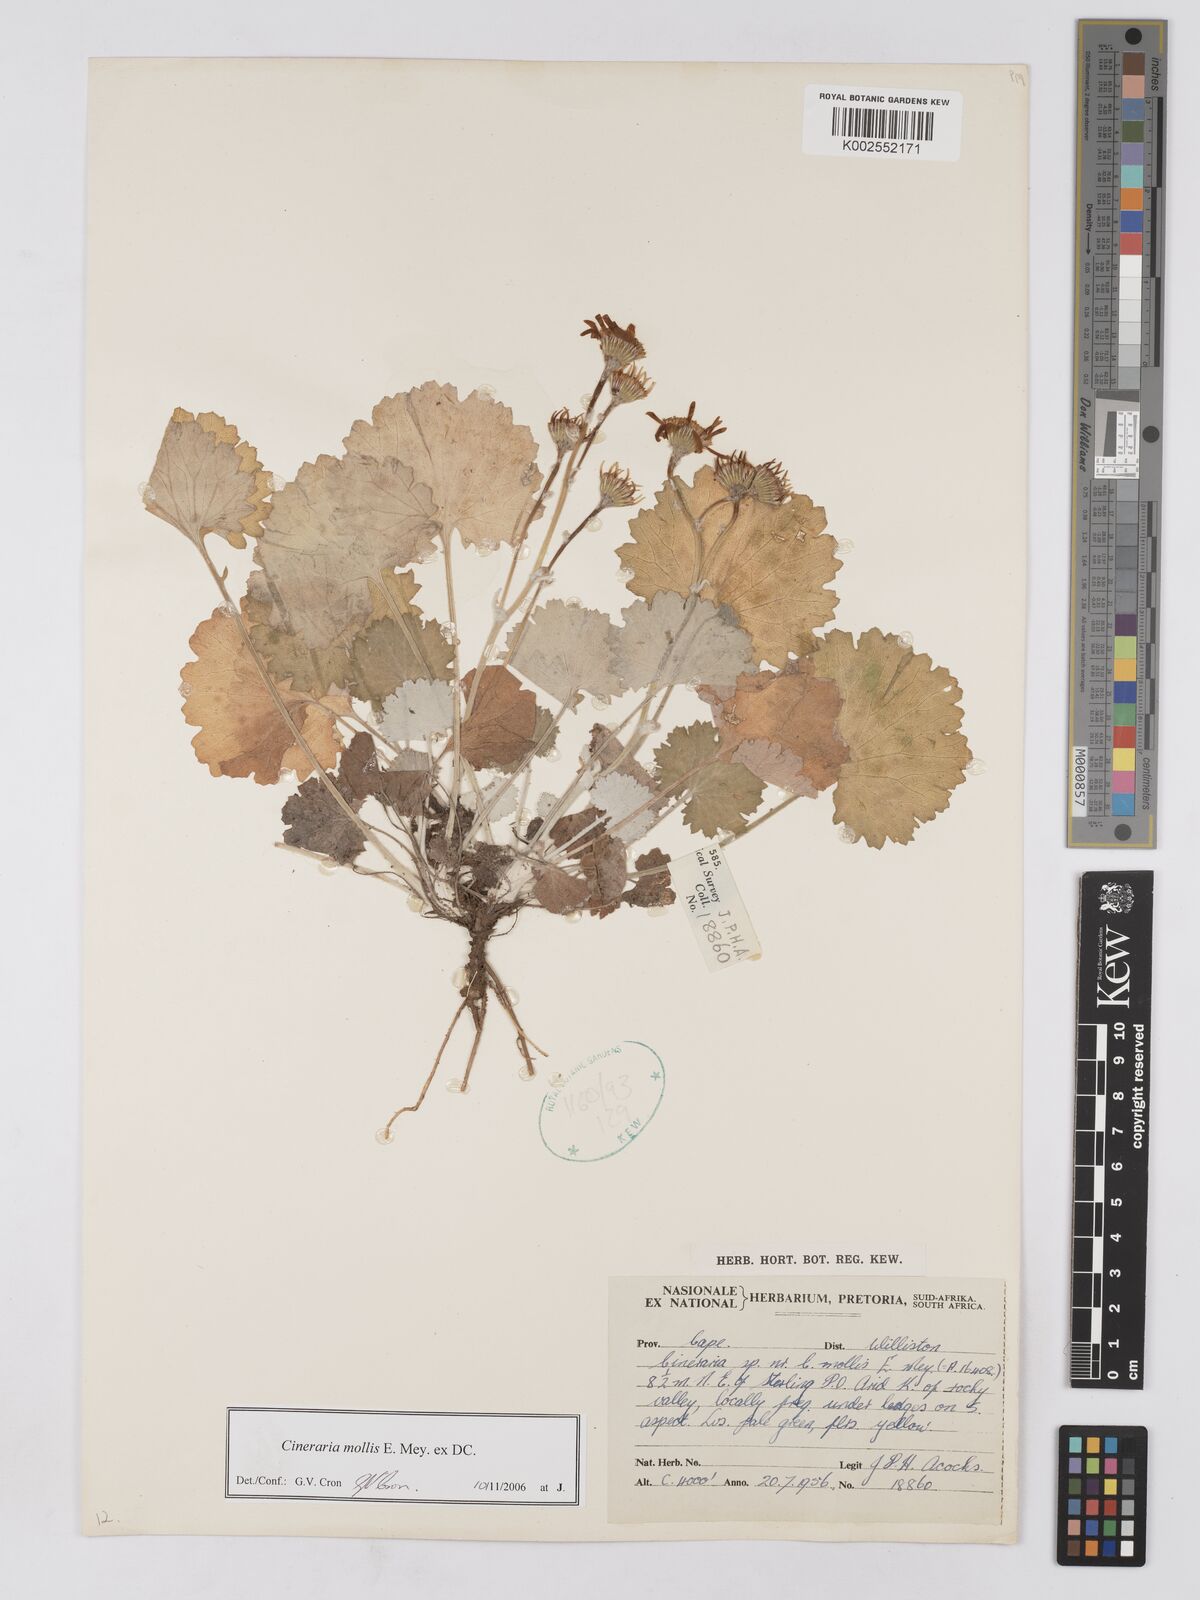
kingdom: Plantae
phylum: Tracheophyta
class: Magnoliopsida
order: Asterales
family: Asteraceae
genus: Cineraria
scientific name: Cineraria mollis
